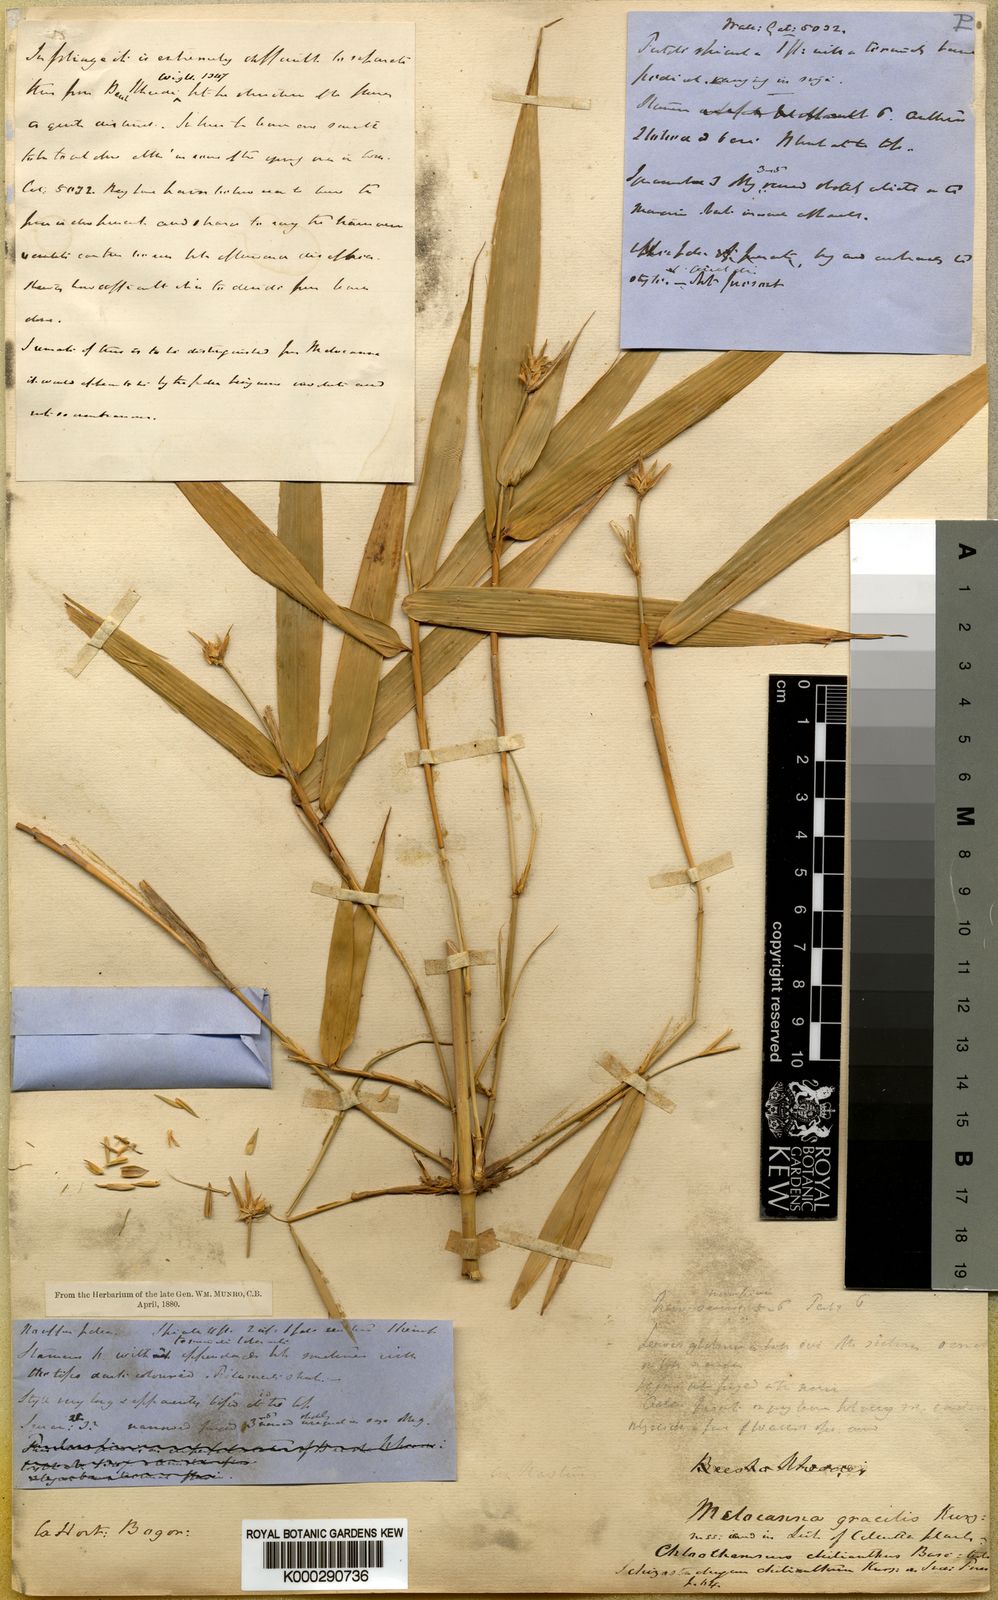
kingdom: Plantae
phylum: Tracheophyta
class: Liliopsida
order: Poales
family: Poaceae
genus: Schizostachyum
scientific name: Schizostachyum gracile
